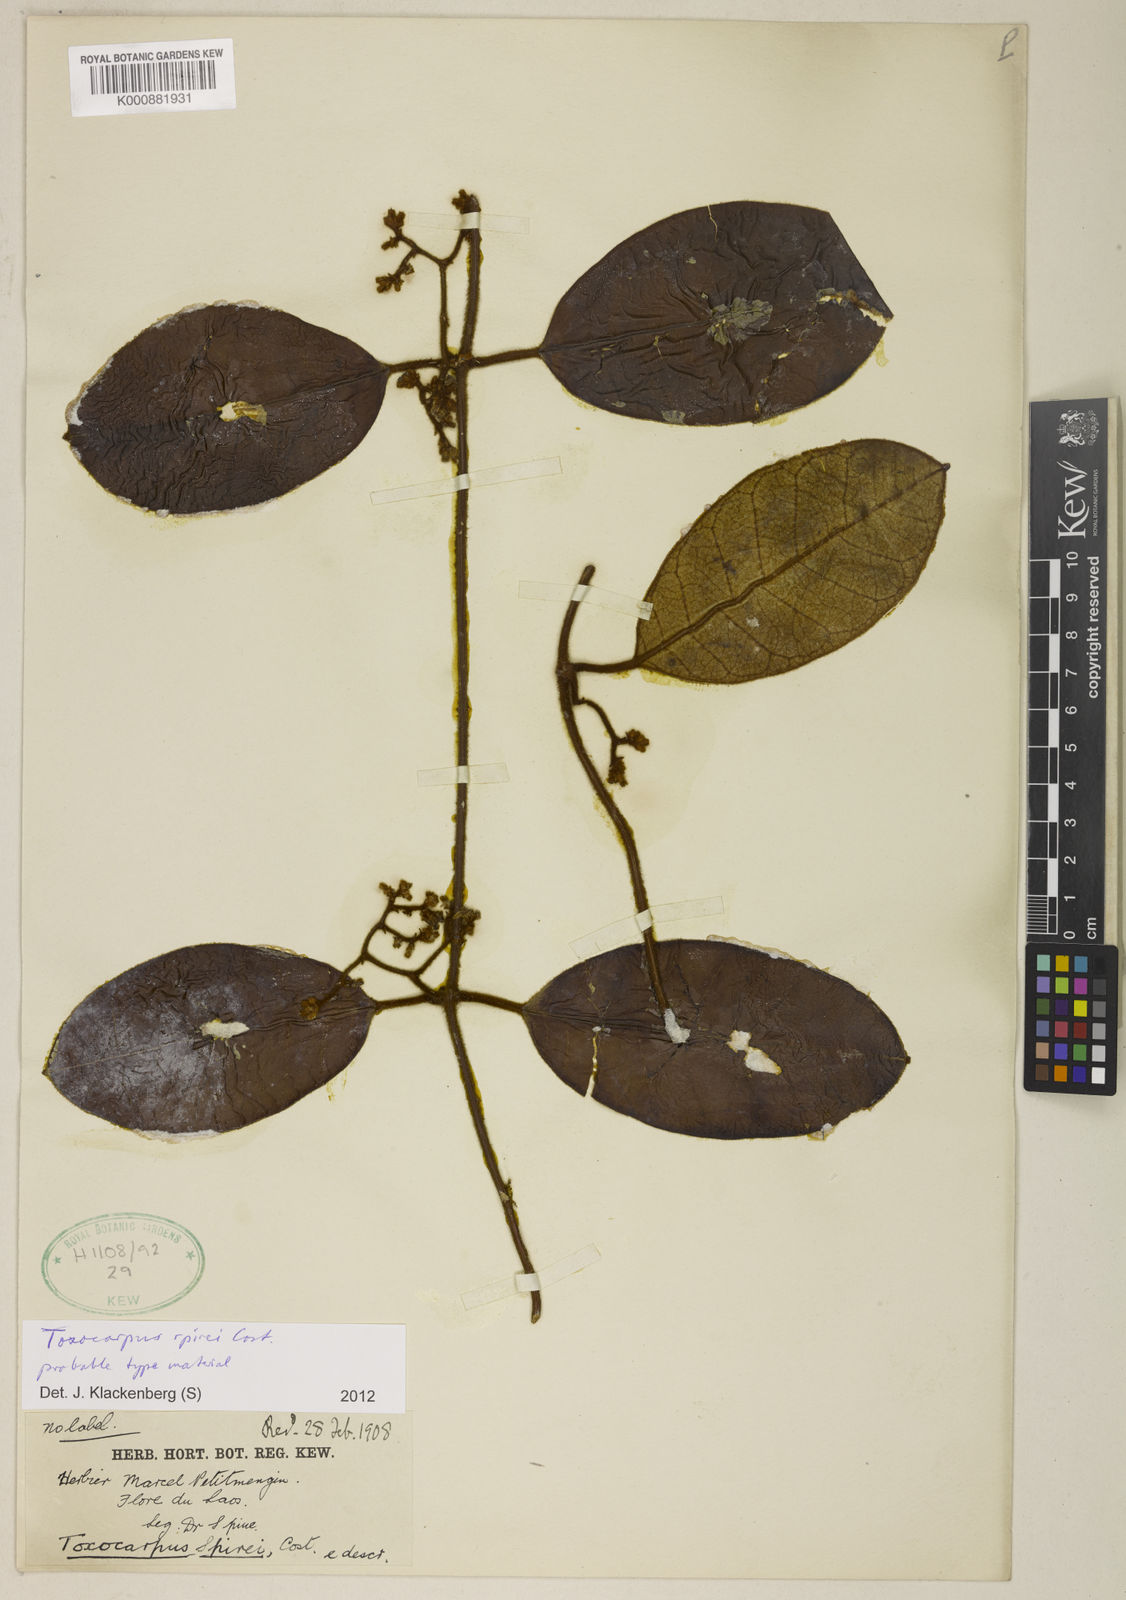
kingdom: Plantae
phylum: Tracheophyta
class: Magnoliopsida
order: Gentianales
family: Apocynaceae
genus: Secamone
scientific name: Secamone spirei
